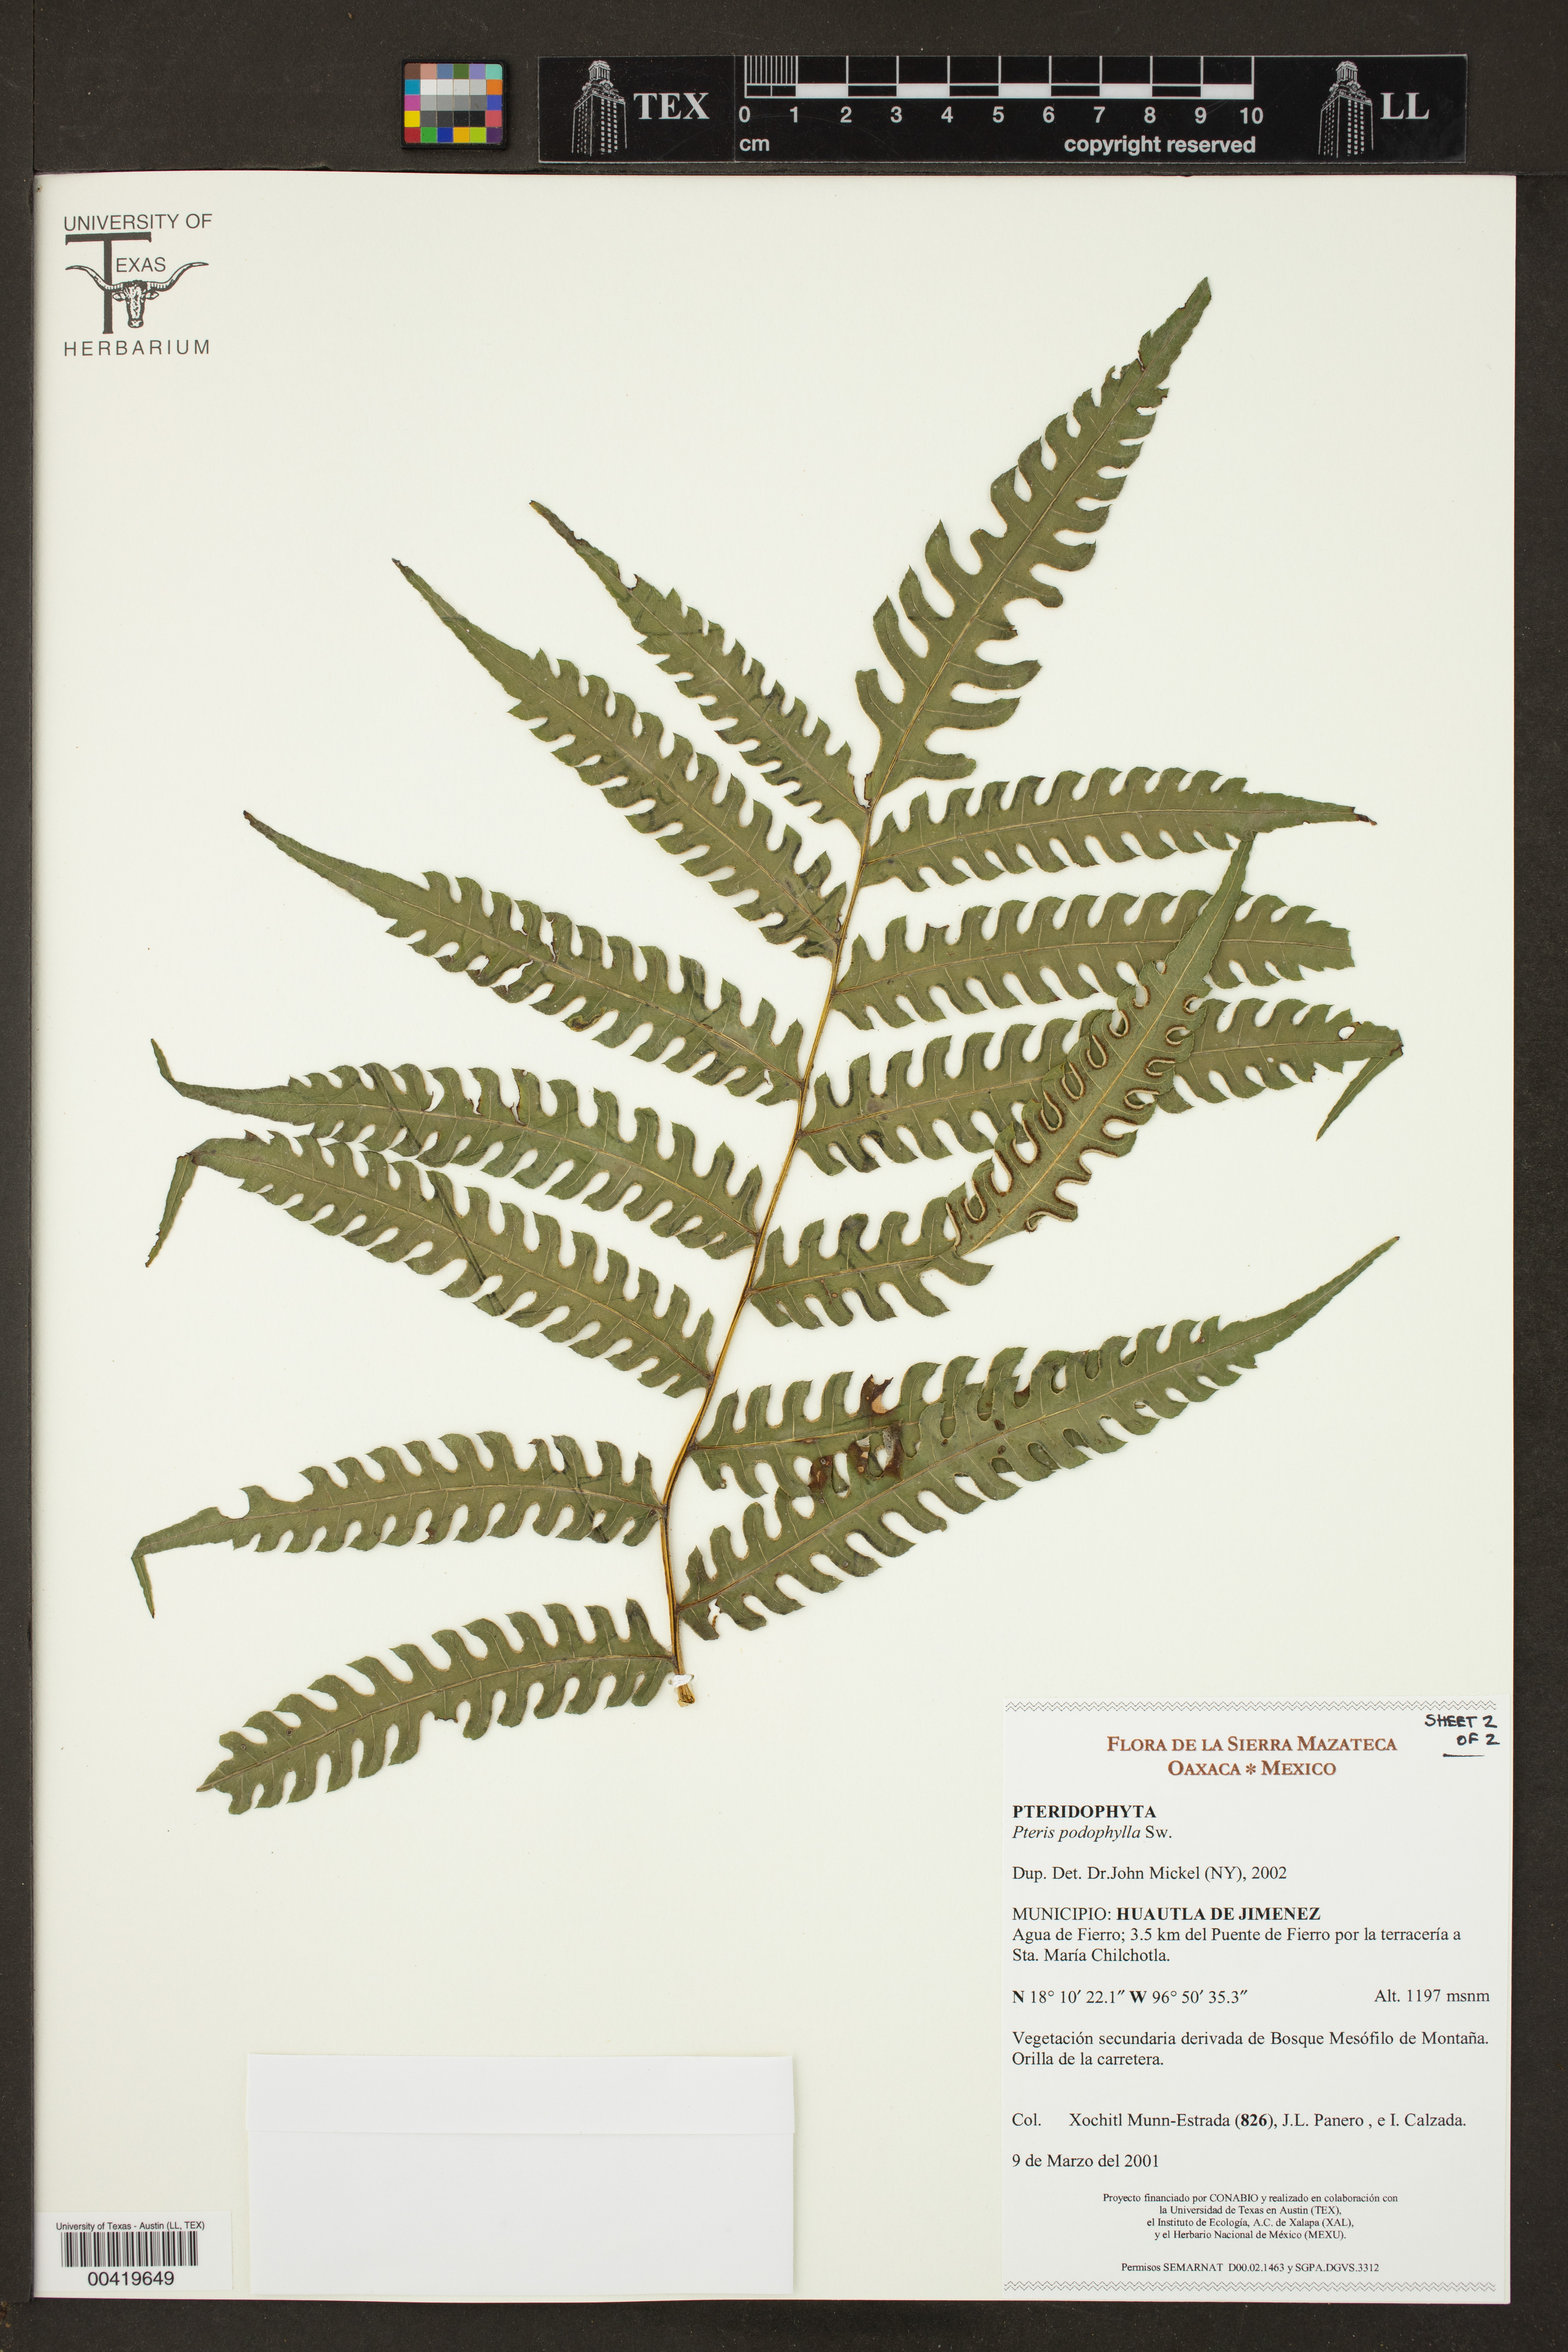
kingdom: Plantae
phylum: Tracheophyta
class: Polypodiopsida
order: Polypodiales
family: Pteridaceae
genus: Pteris
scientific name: Pteris podophylla
